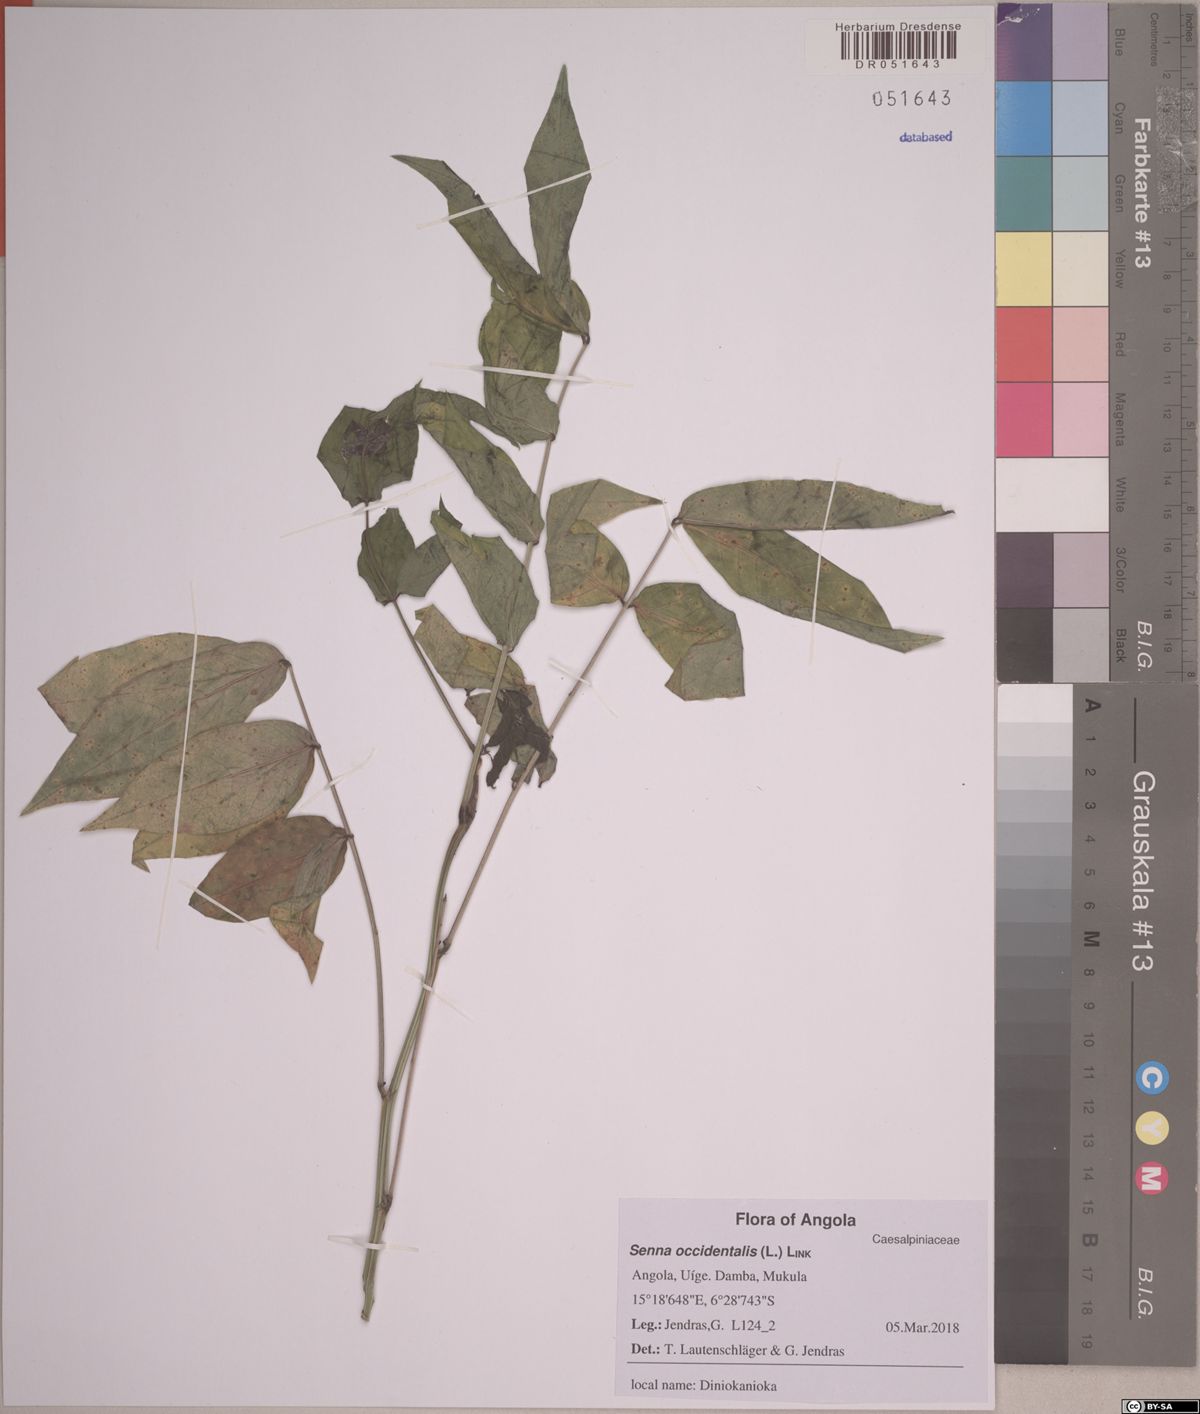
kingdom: Plantae
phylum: Tracheophyta
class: Magnoliopsida
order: Fabales
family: Fabaceae
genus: Senna
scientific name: Senna occidentalis
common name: Septicweed
